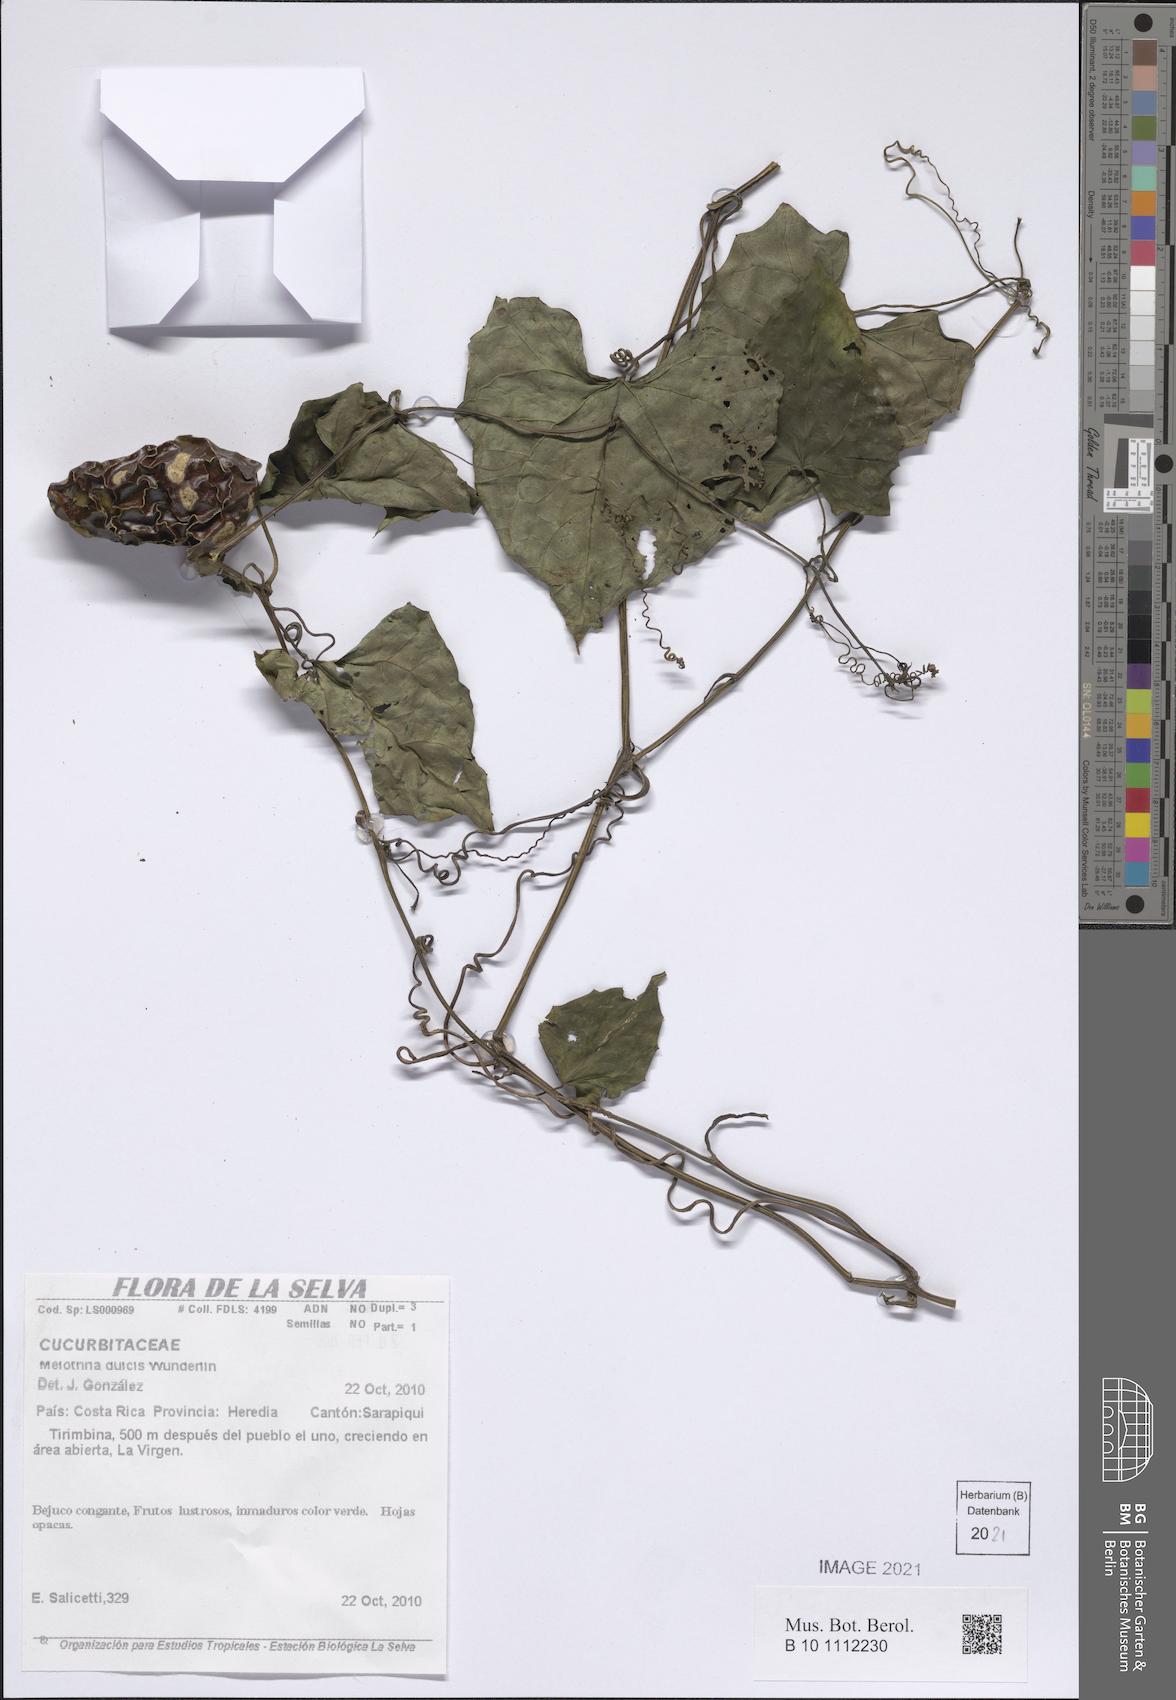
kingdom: Plantae
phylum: Tracheophyta
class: Magnoliopsida
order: Cucurbitales
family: Cucurbitaceae
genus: Melothria
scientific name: Melothria dulcis
